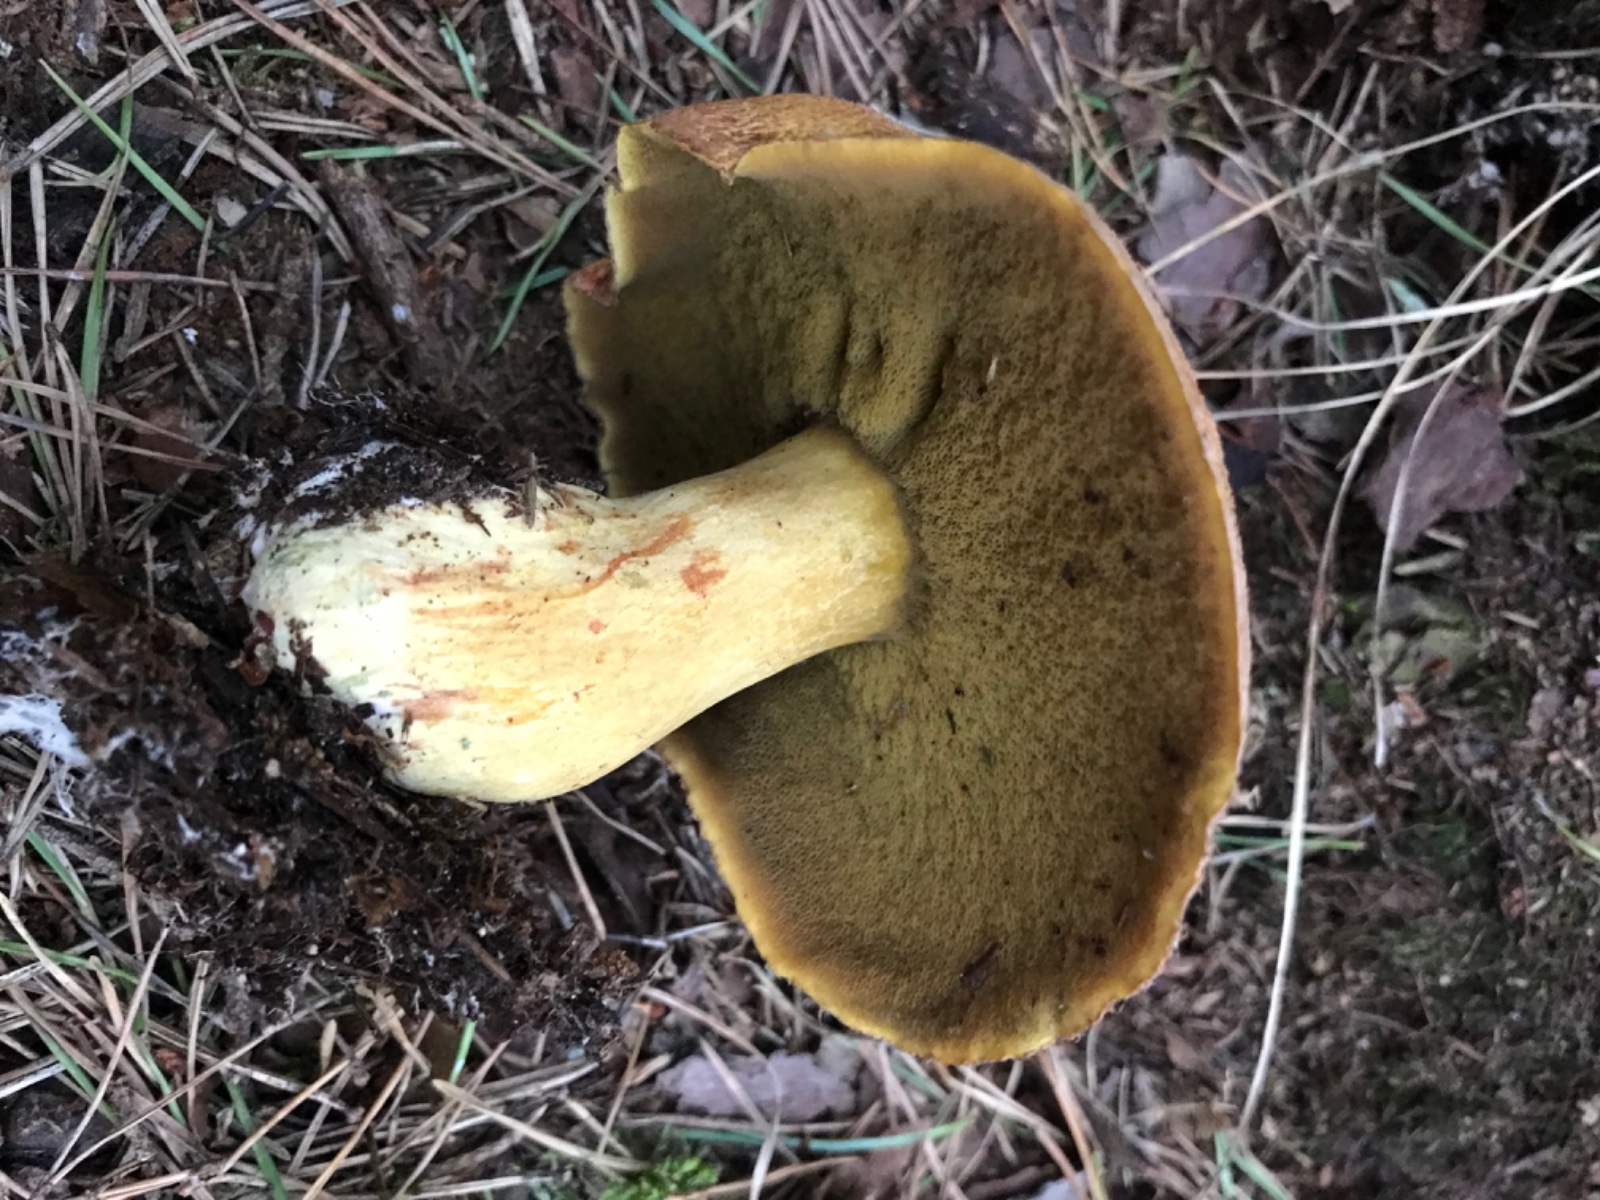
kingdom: Fungi
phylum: Basidiomycota
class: Agaricomycetes
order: Boletales
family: Suillaceae
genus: Suillus
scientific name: Suillus variegatus
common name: broget slimrørhat
